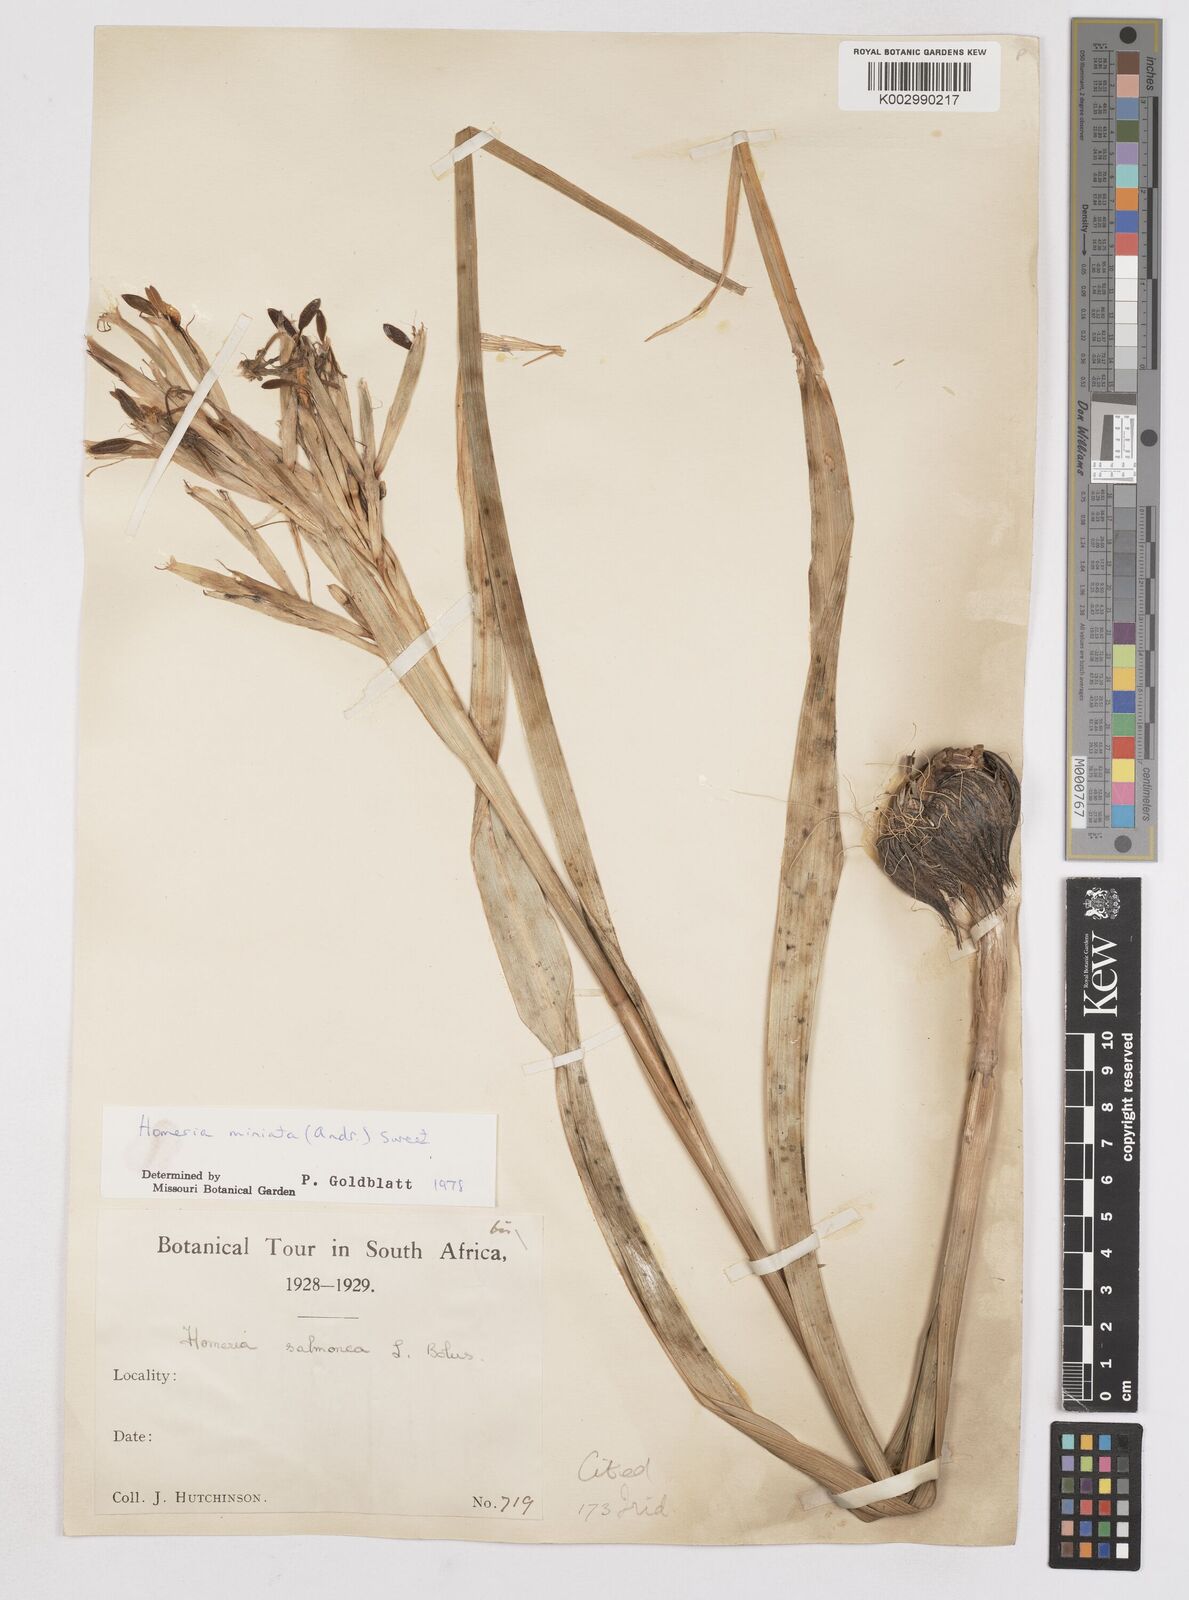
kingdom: Plantae
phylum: Tracheophyta
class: Liliopsida
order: Asparagales
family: Iridaceae
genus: Moraea
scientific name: Moraea miniata
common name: Two-leaf cape-tulip
